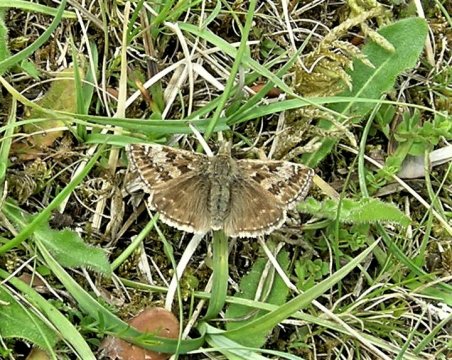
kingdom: Animalia
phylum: Arthropoda
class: Insecta
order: Lepidoptera
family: Hesperiidae
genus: Erynnis
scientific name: Erynnis tages
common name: Dingy Skipper
